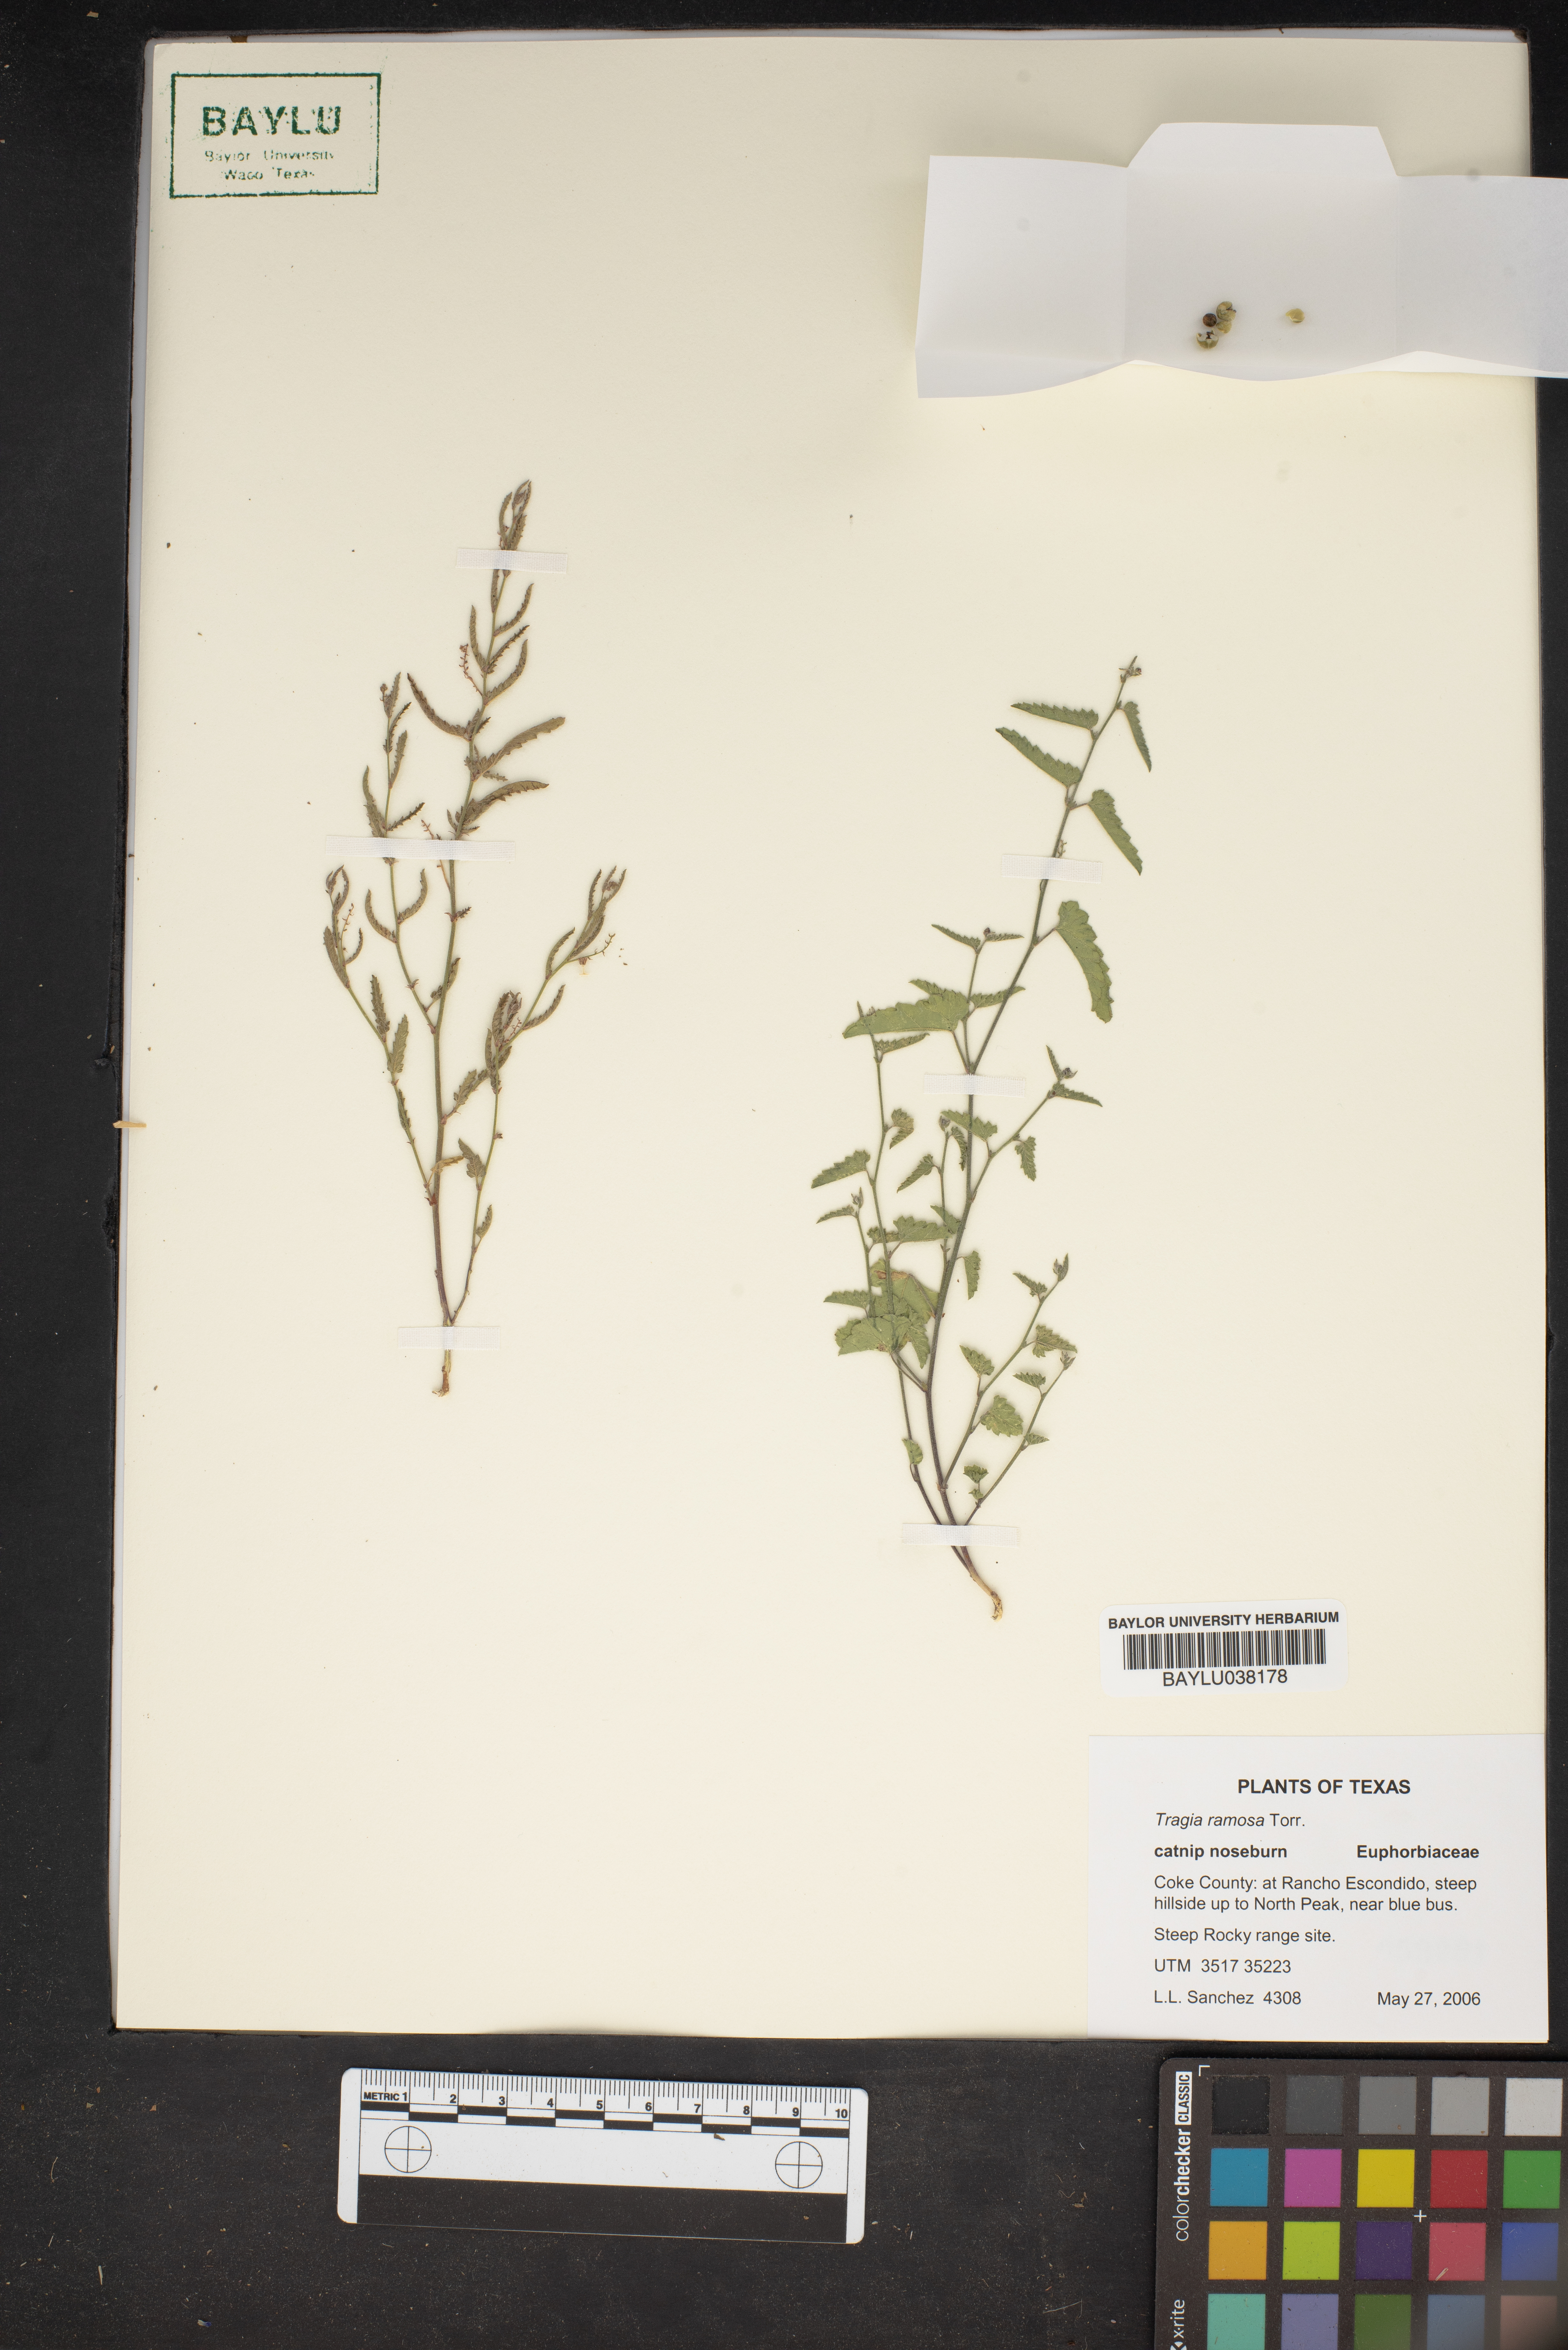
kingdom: Plantae
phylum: Tracheophyta
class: Magnoliopsida
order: Malpighiales
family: Euphorbiaceae
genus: Tragia
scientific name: Tragia ramosa
